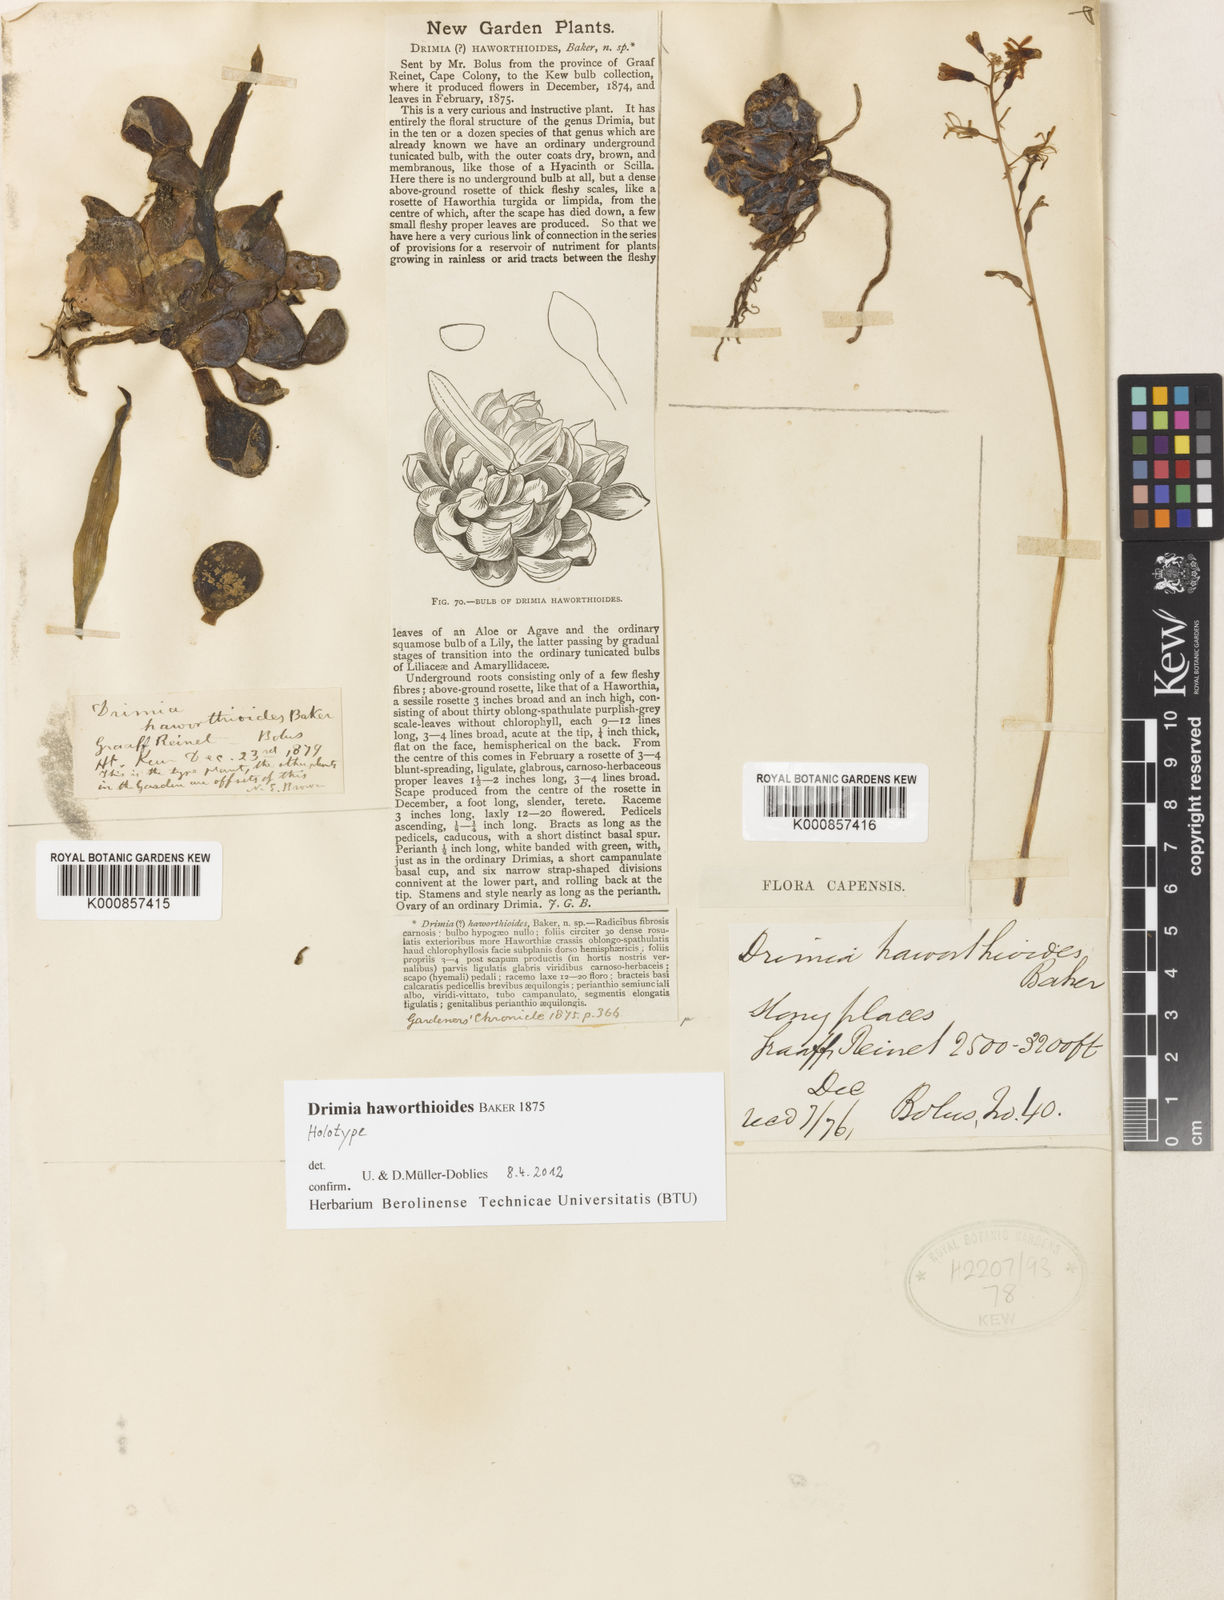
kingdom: Plantae
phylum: Tracheophyta
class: Liliopsida
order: Asparagales
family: Asparagaceae
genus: Drimia
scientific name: Drimia haworthioides
